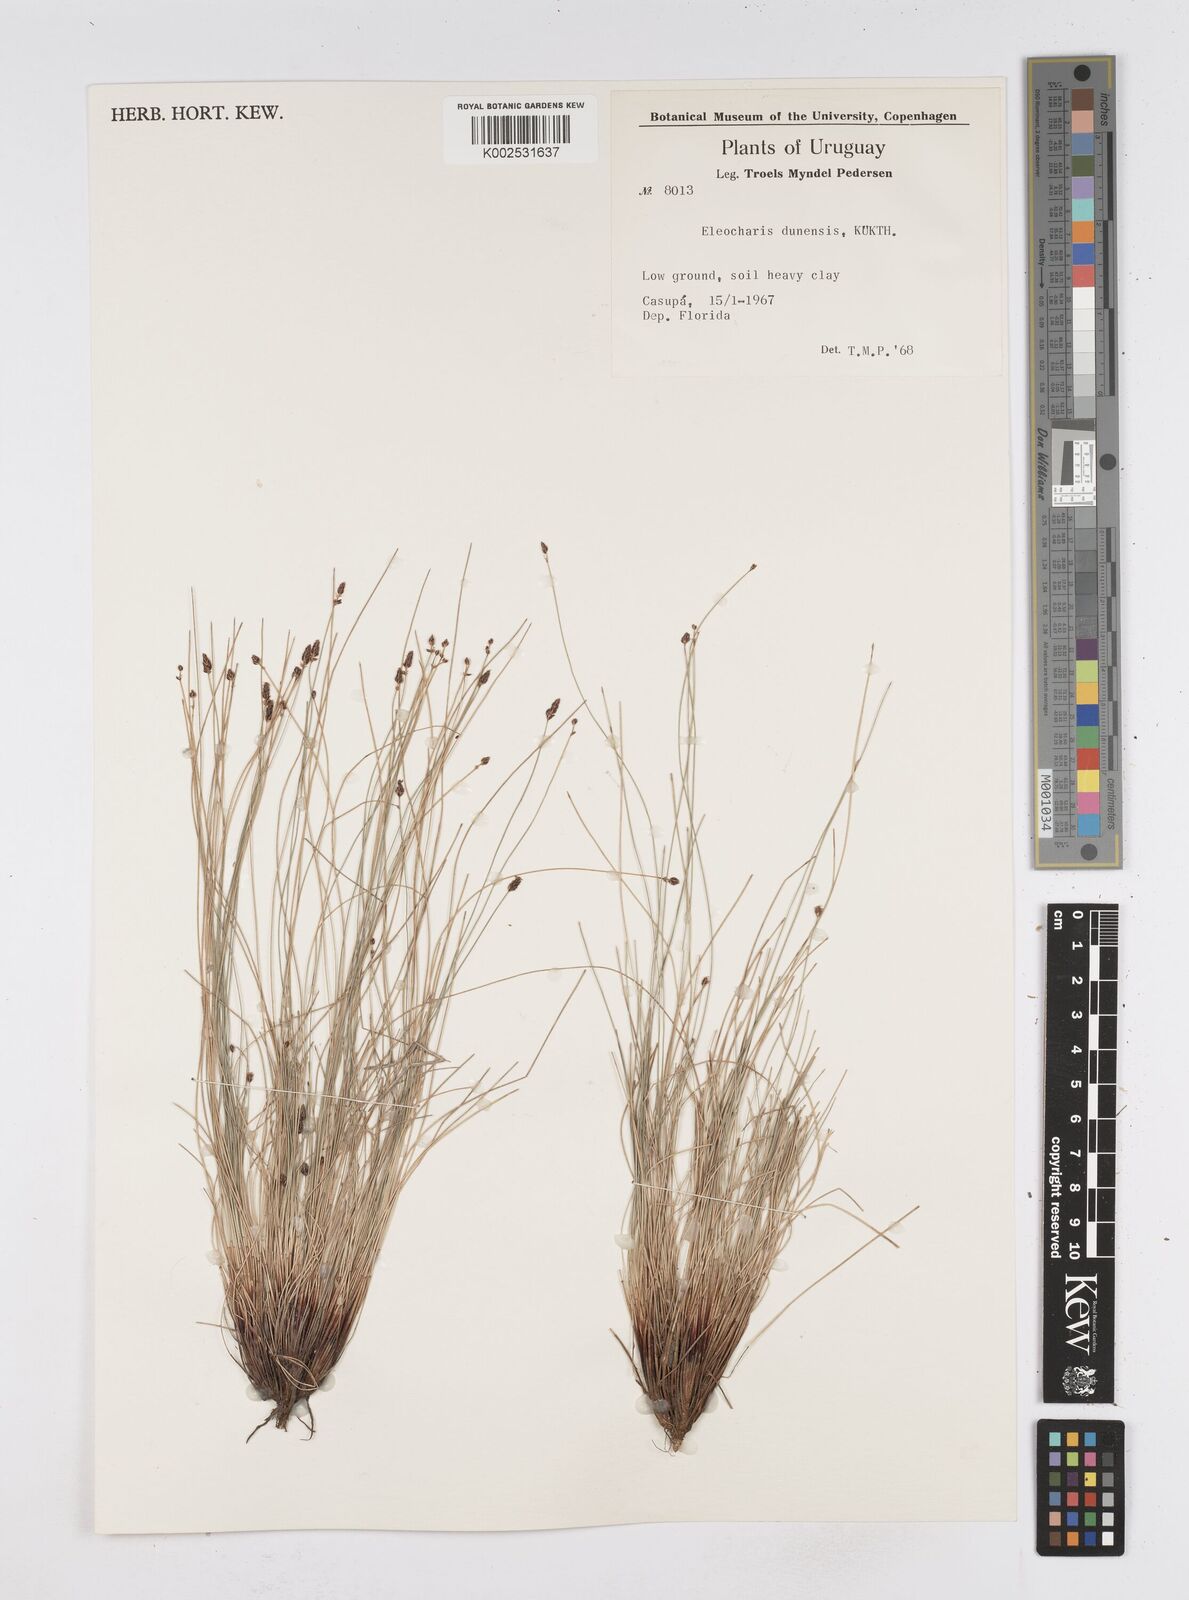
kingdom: Plantae
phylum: Tracheophyta
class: Liliopsida
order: Poales
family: Cyperaceae
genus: Eleocharis
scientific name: Eleocharis dunensis
